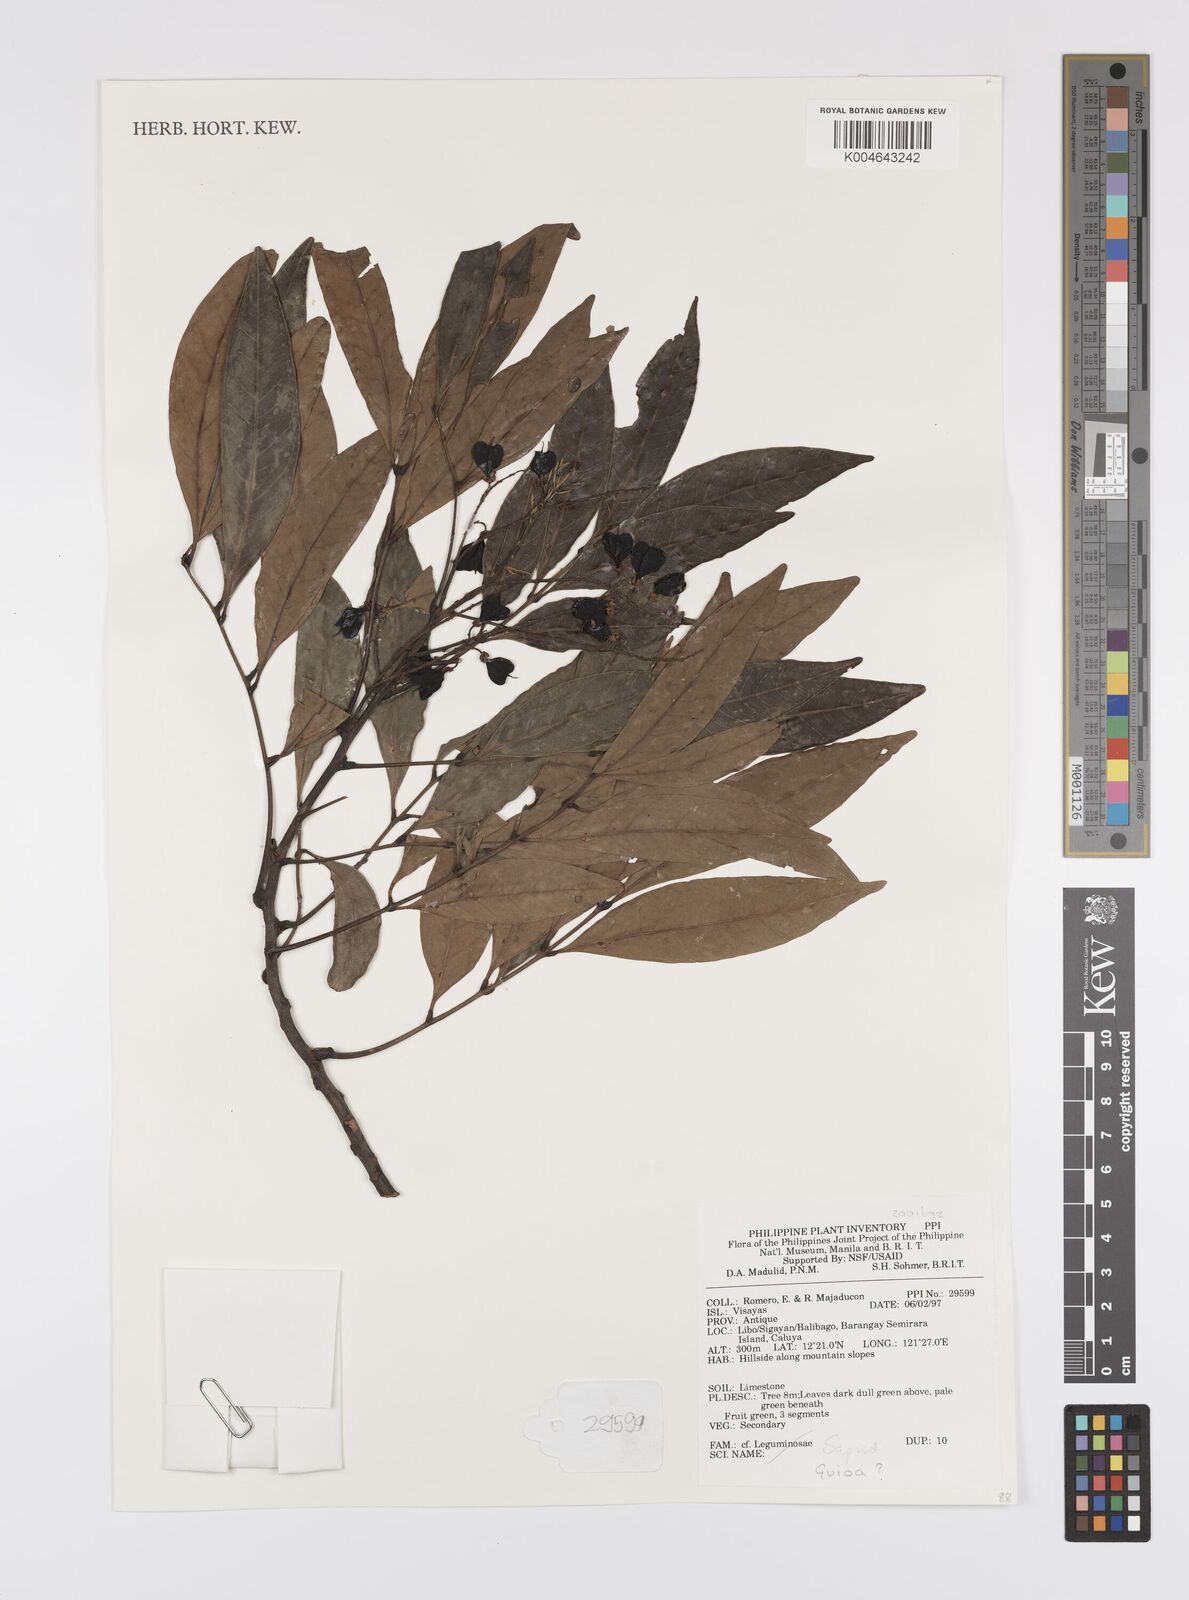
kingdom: Plantae
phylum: Tracheophyta
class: Magnoliopsida
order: Sapindales
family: Sapindaceae
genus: Guioa
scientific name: Guioa
